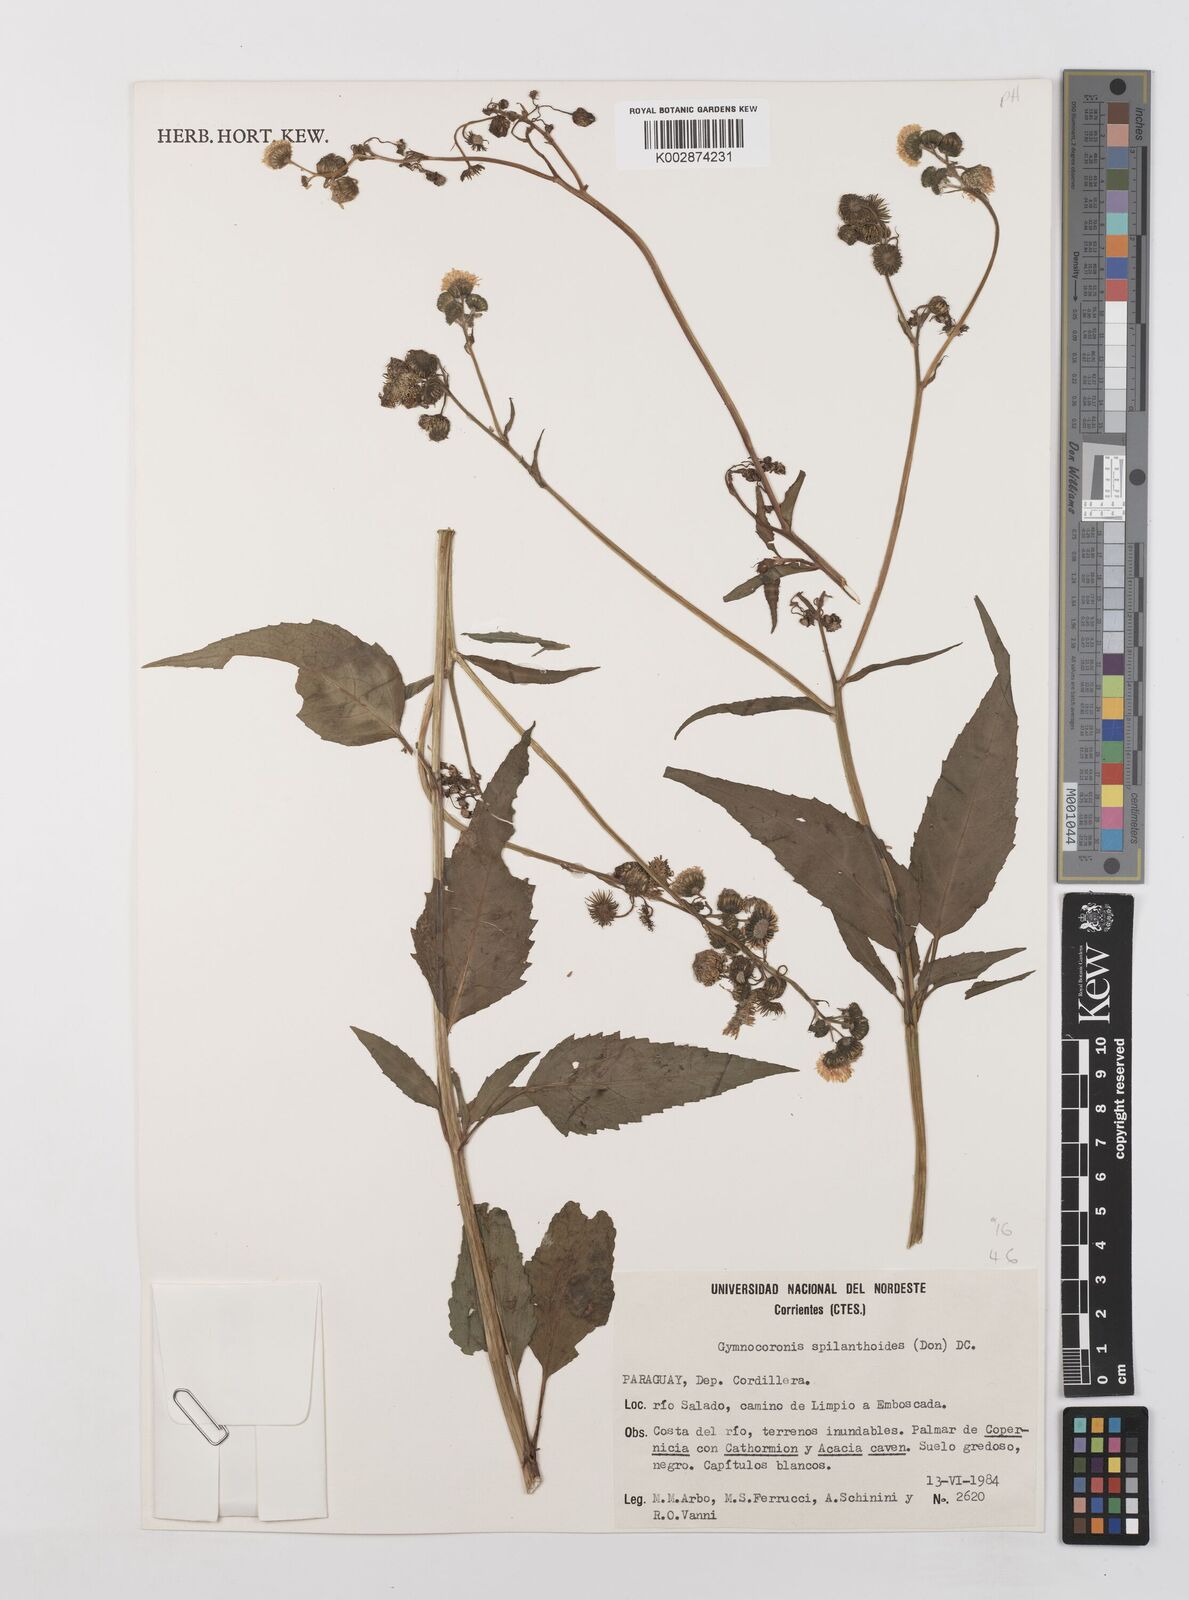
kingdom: Plantae
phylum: Tracheophyta
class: Magnoliopsida
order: Asterales
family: Asteraceae
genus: Gymnocoronis
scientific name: Gymnocoronis spilanthoides
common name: Senegal teaplant
